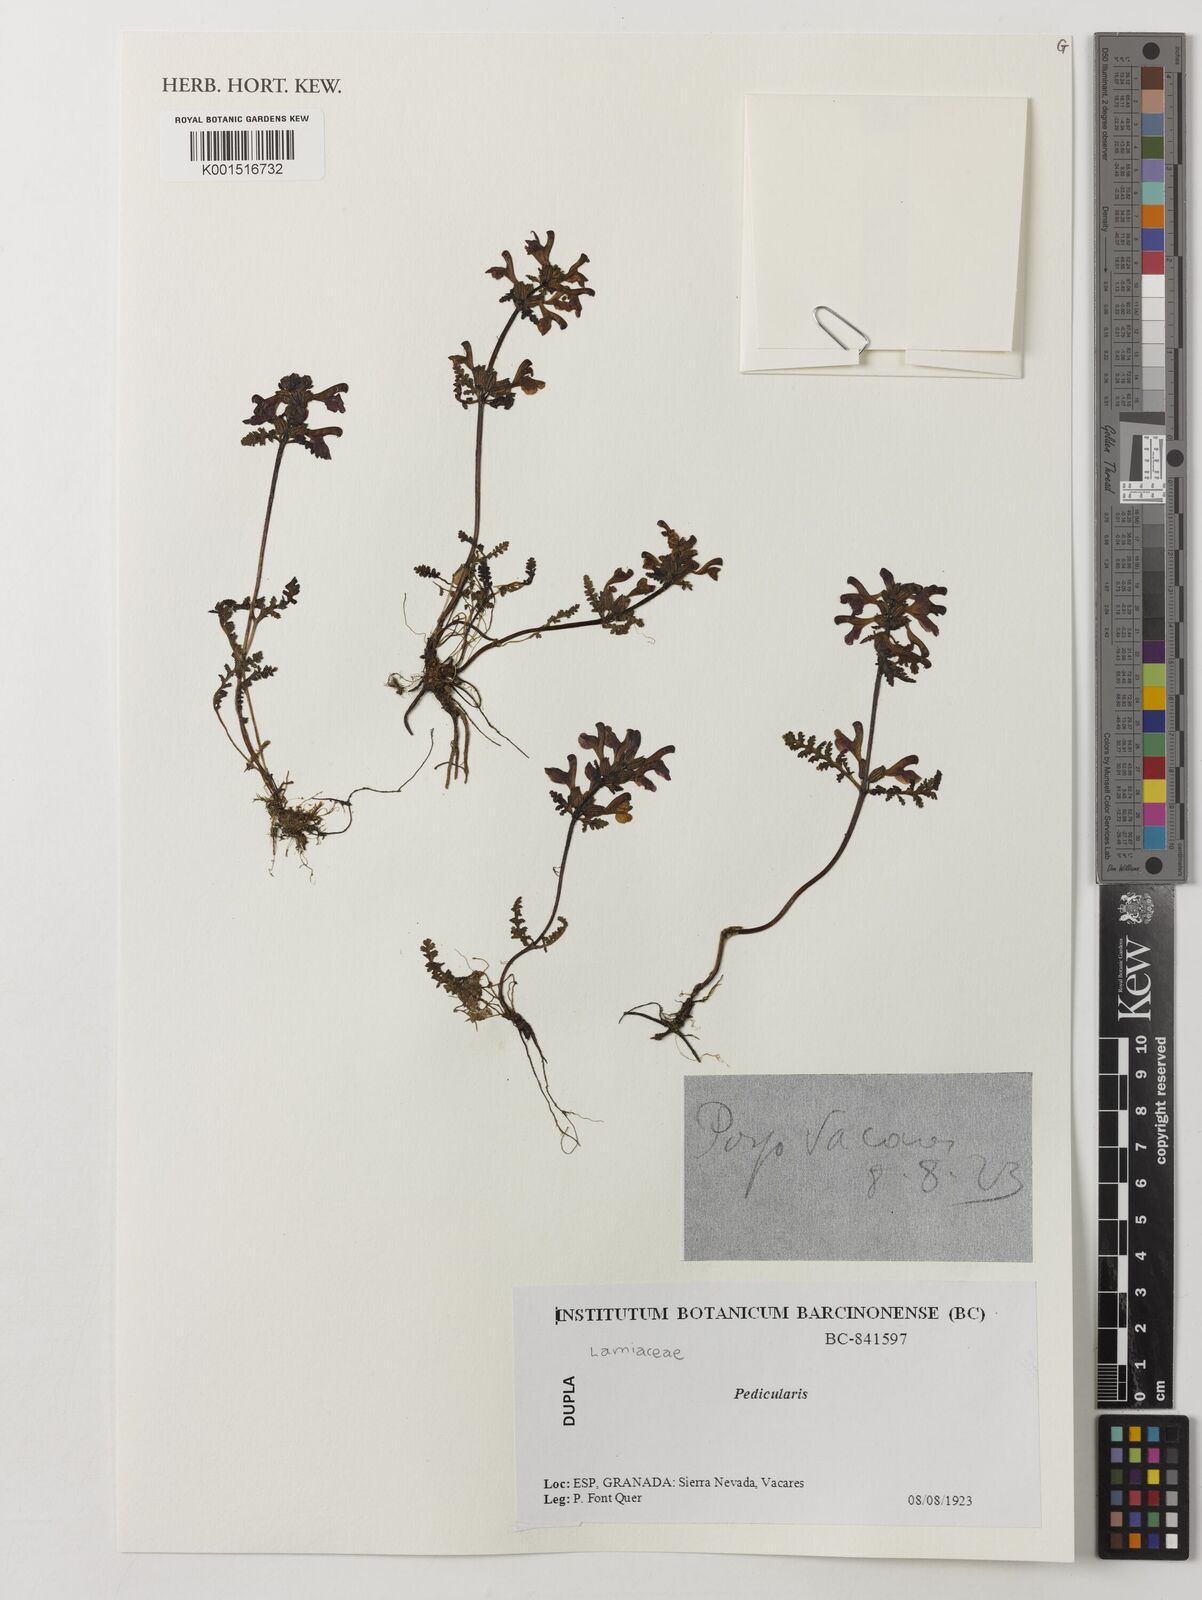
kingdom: Plantae
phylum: Tracheophyta
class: Magnoliopsida
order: Lamiales
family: Orobanchaceae
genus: Pedicularis
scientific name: Pedicularis
